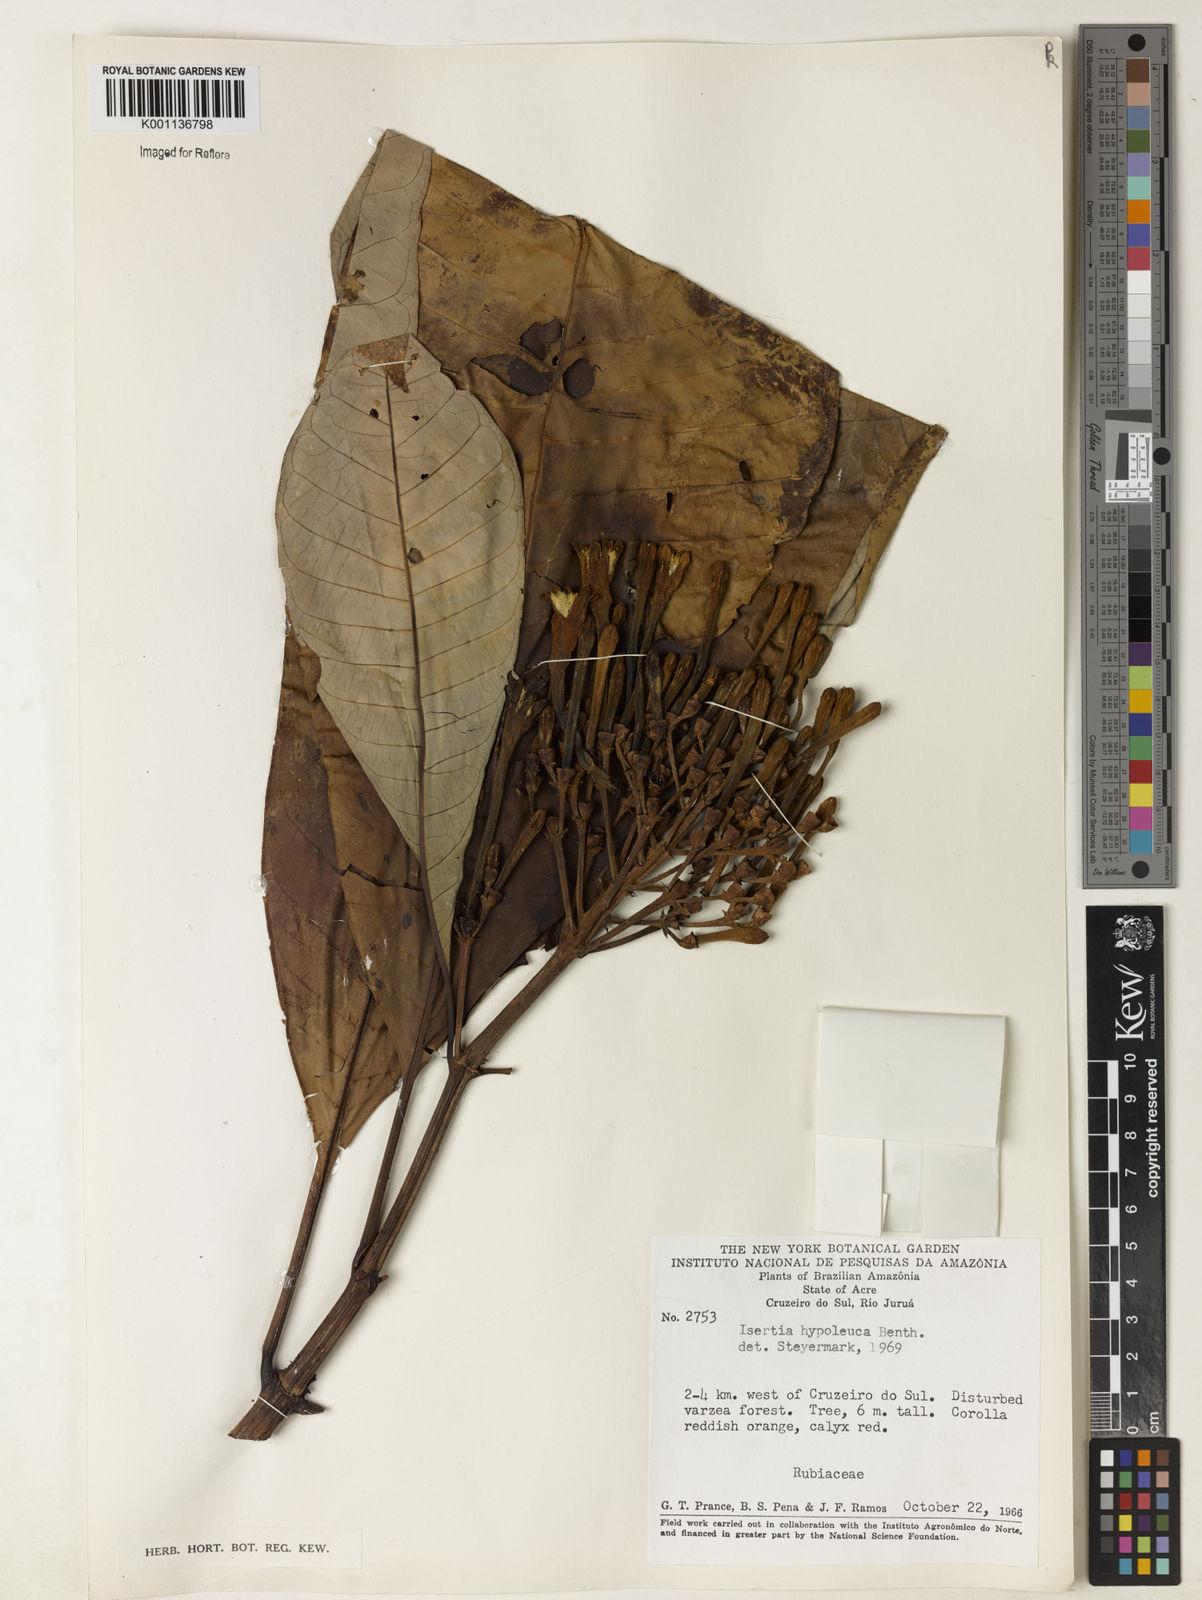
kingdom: Plantae
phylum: Tracheophyta
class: Magnoliopsida
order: Gentianales
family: Rubiaceae
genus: Isertia
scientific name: Isertia hypoleuca
